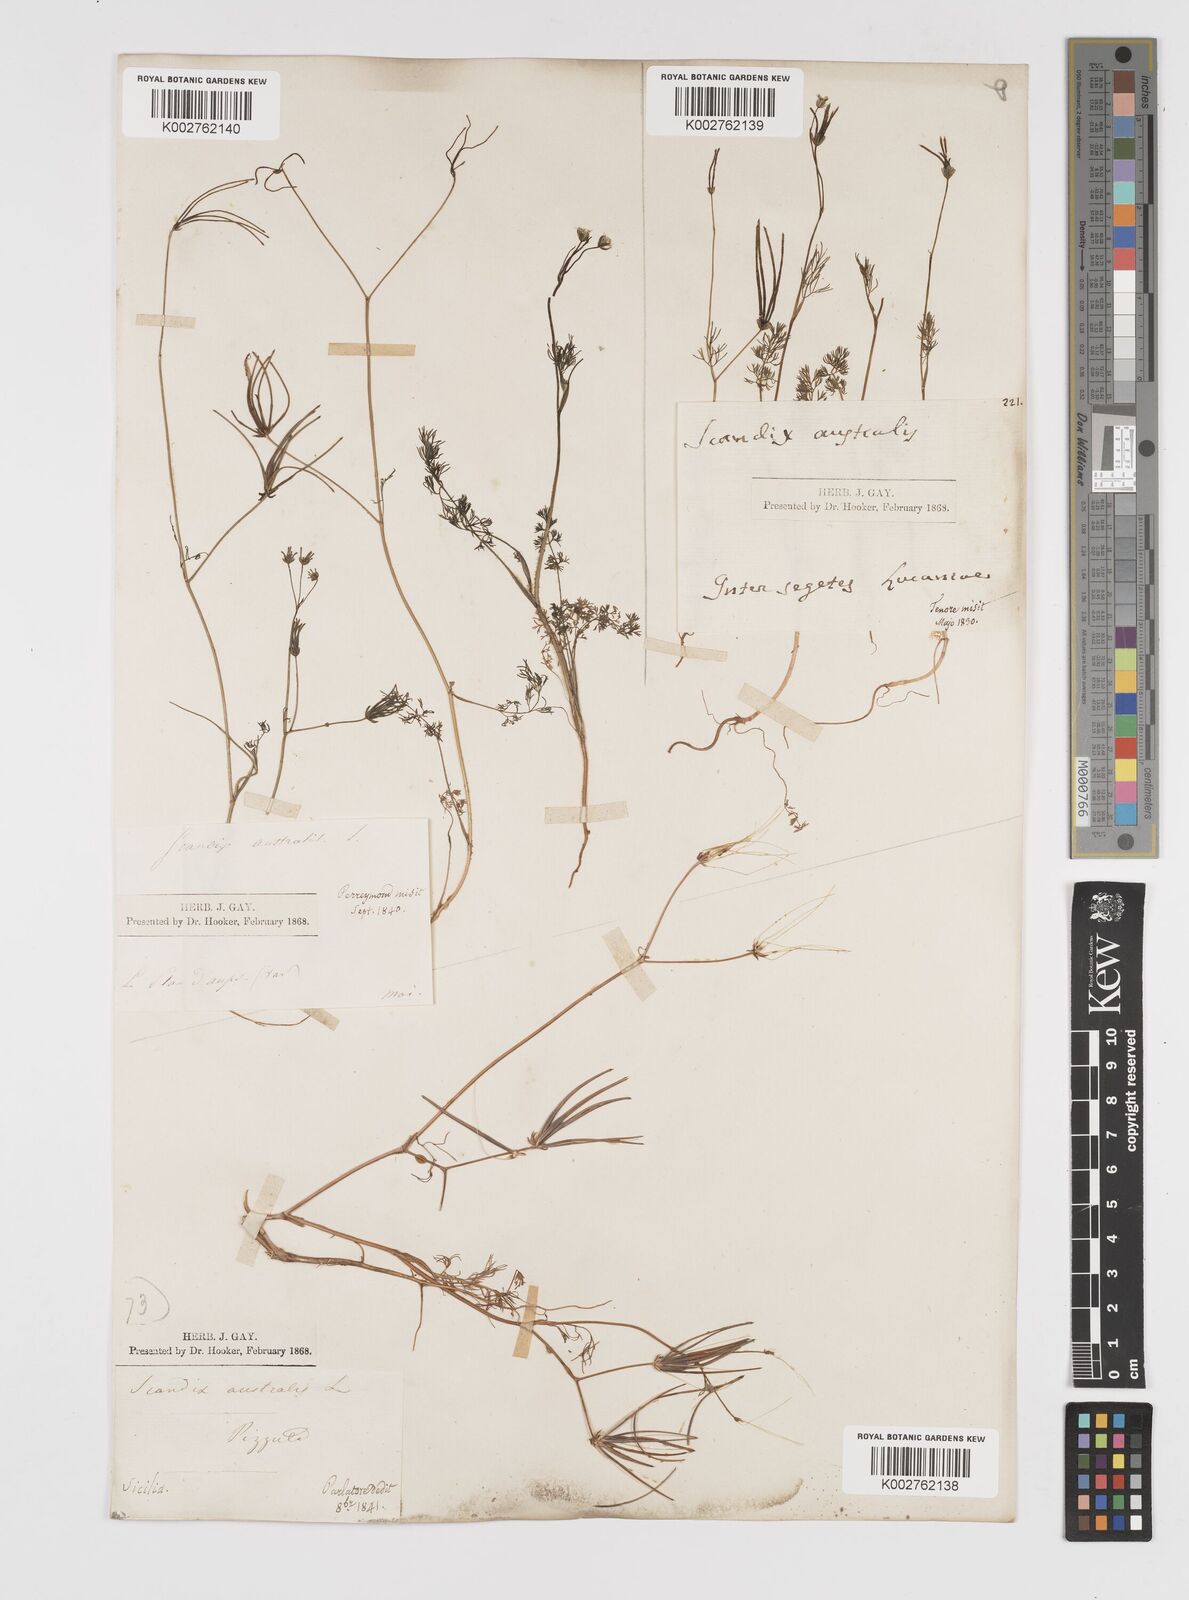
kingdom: Plantae
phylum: Tracheophyta
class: Magnoliopsida
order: Apiales
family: Apiaceae
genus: Scandix
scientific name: Scandix australis
